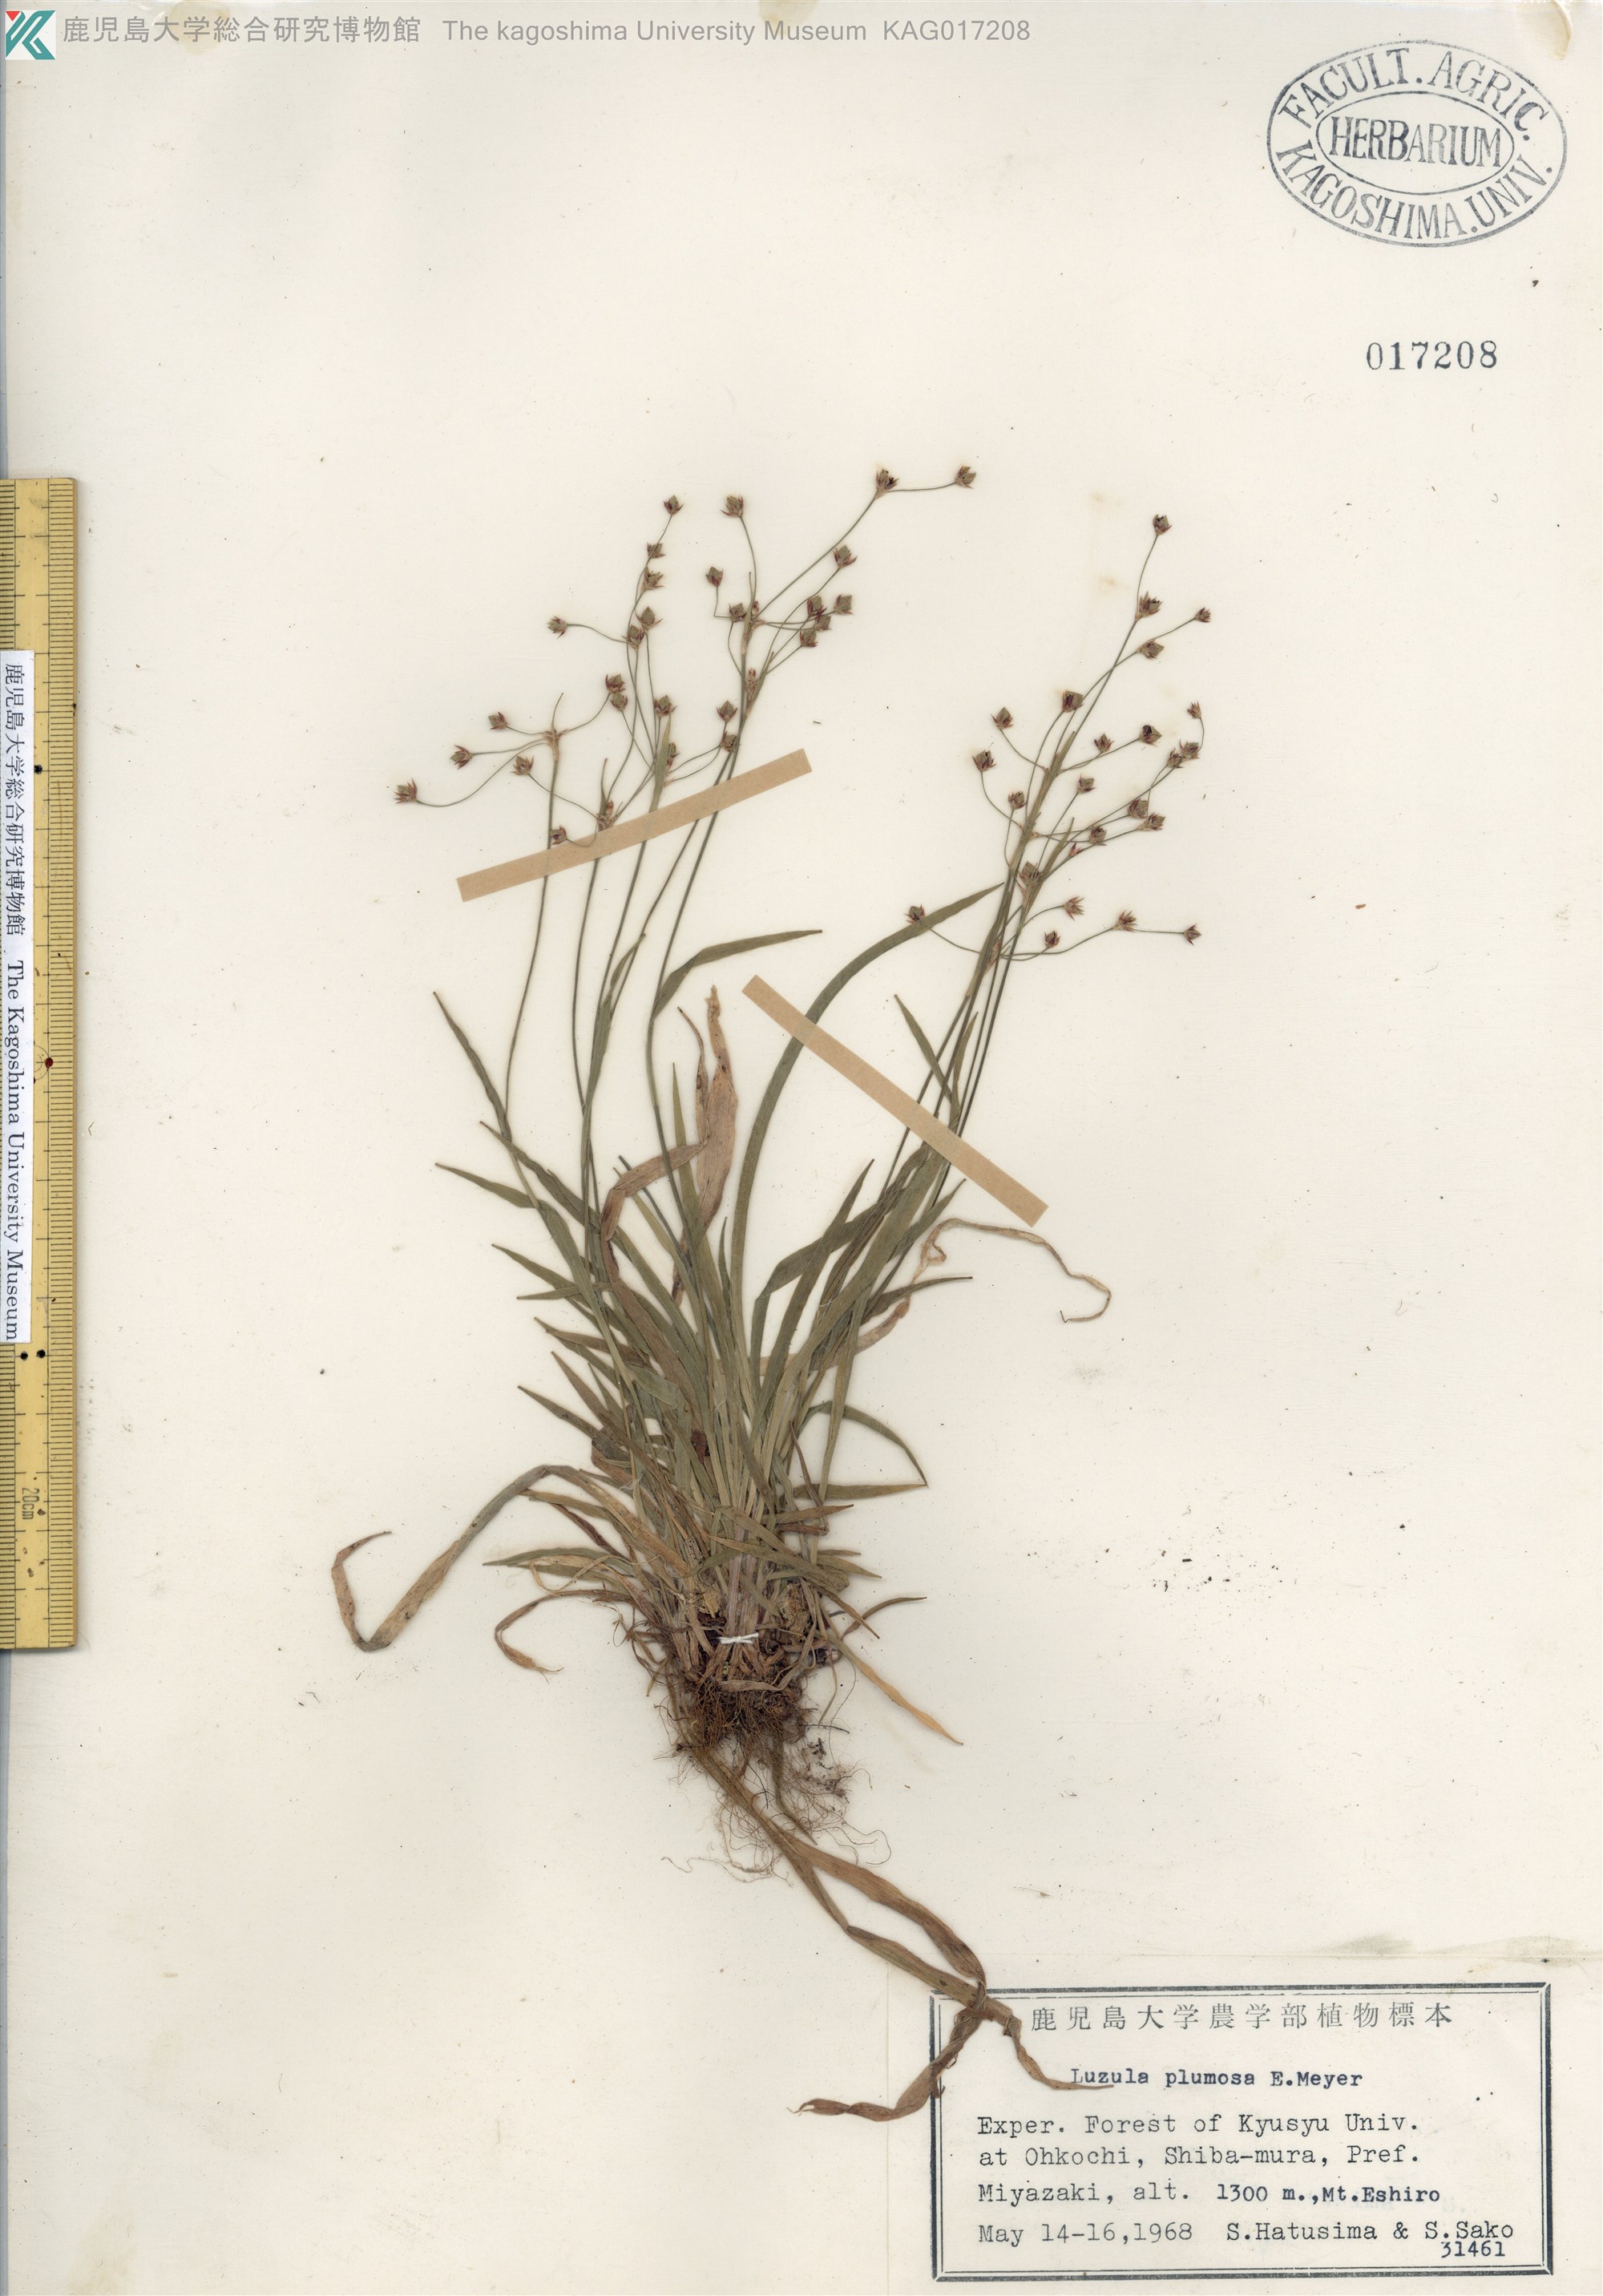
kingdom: Plantae
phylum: Tracheophyta
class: Liliopsida
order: Poales
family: Juncaceae
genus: Luzula
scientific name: Luzula plumosa
